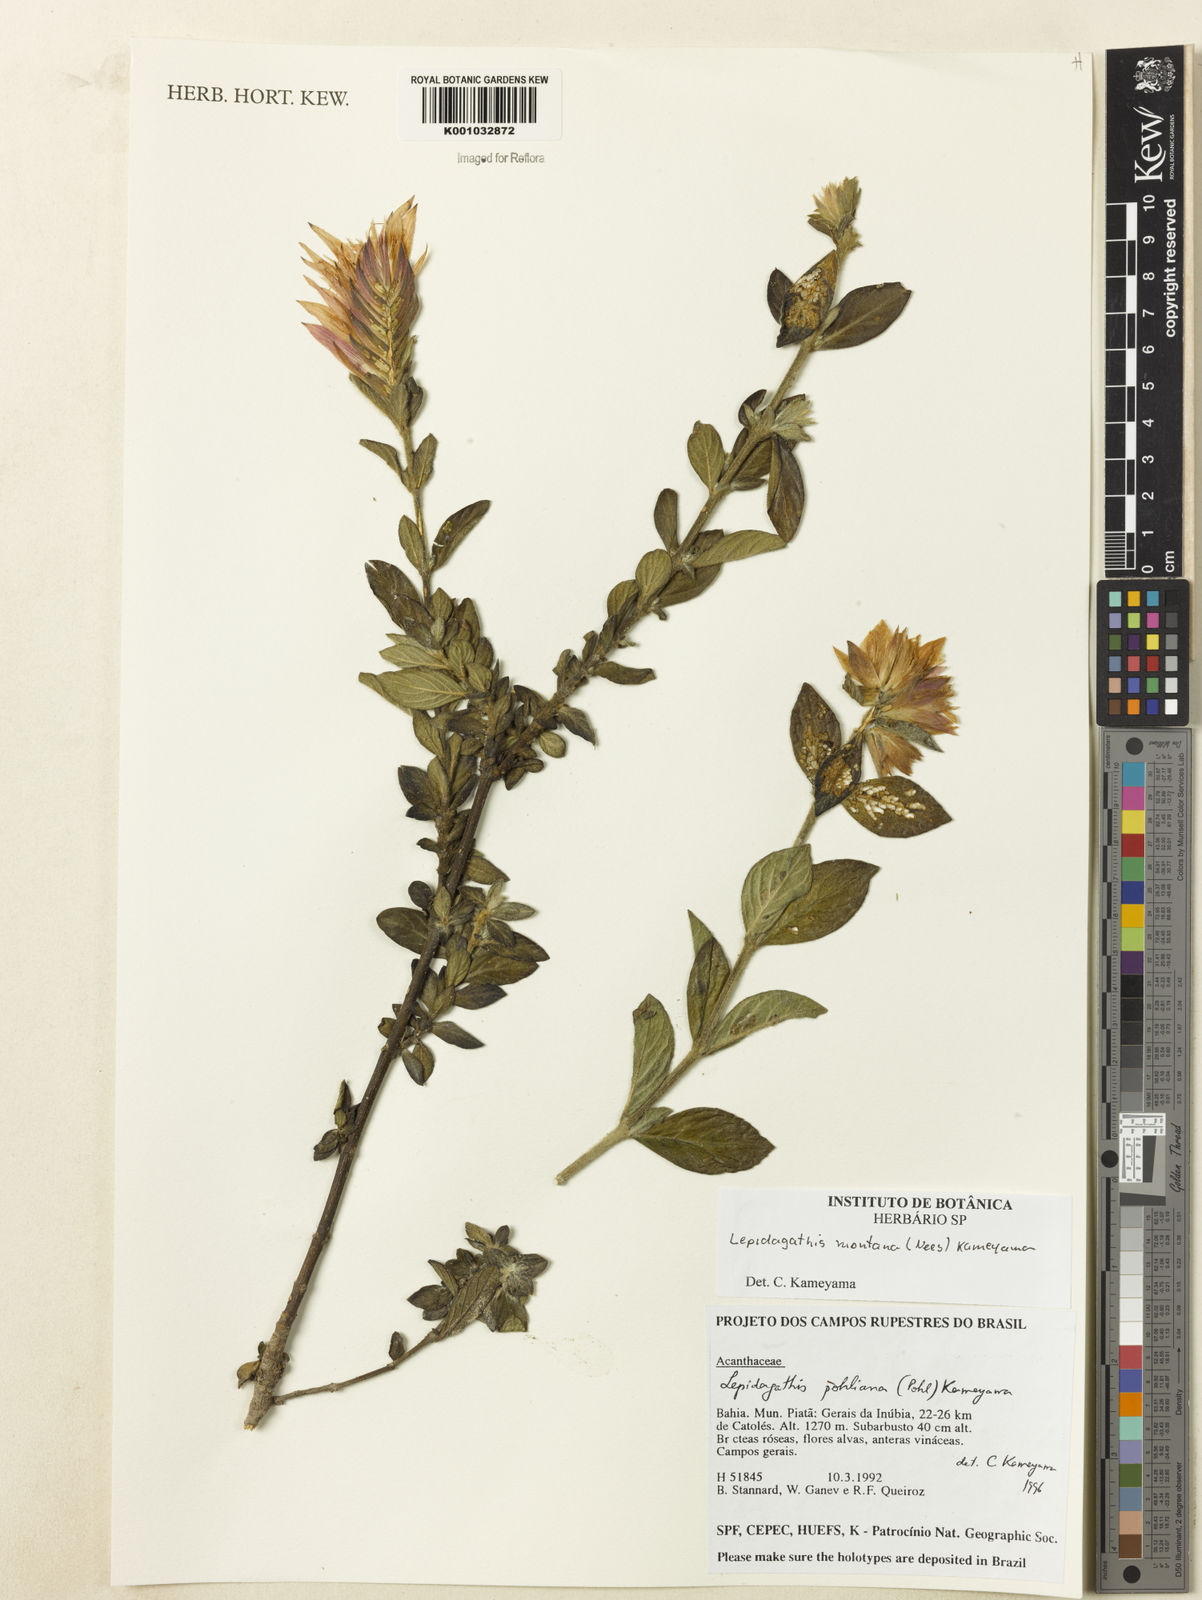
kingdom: Plantae
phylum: Tracheophyta
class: Magnoliopsida
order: Lamiales
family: Acanthaceae
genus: Lepidagathis
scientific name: Lepidagathis montana
